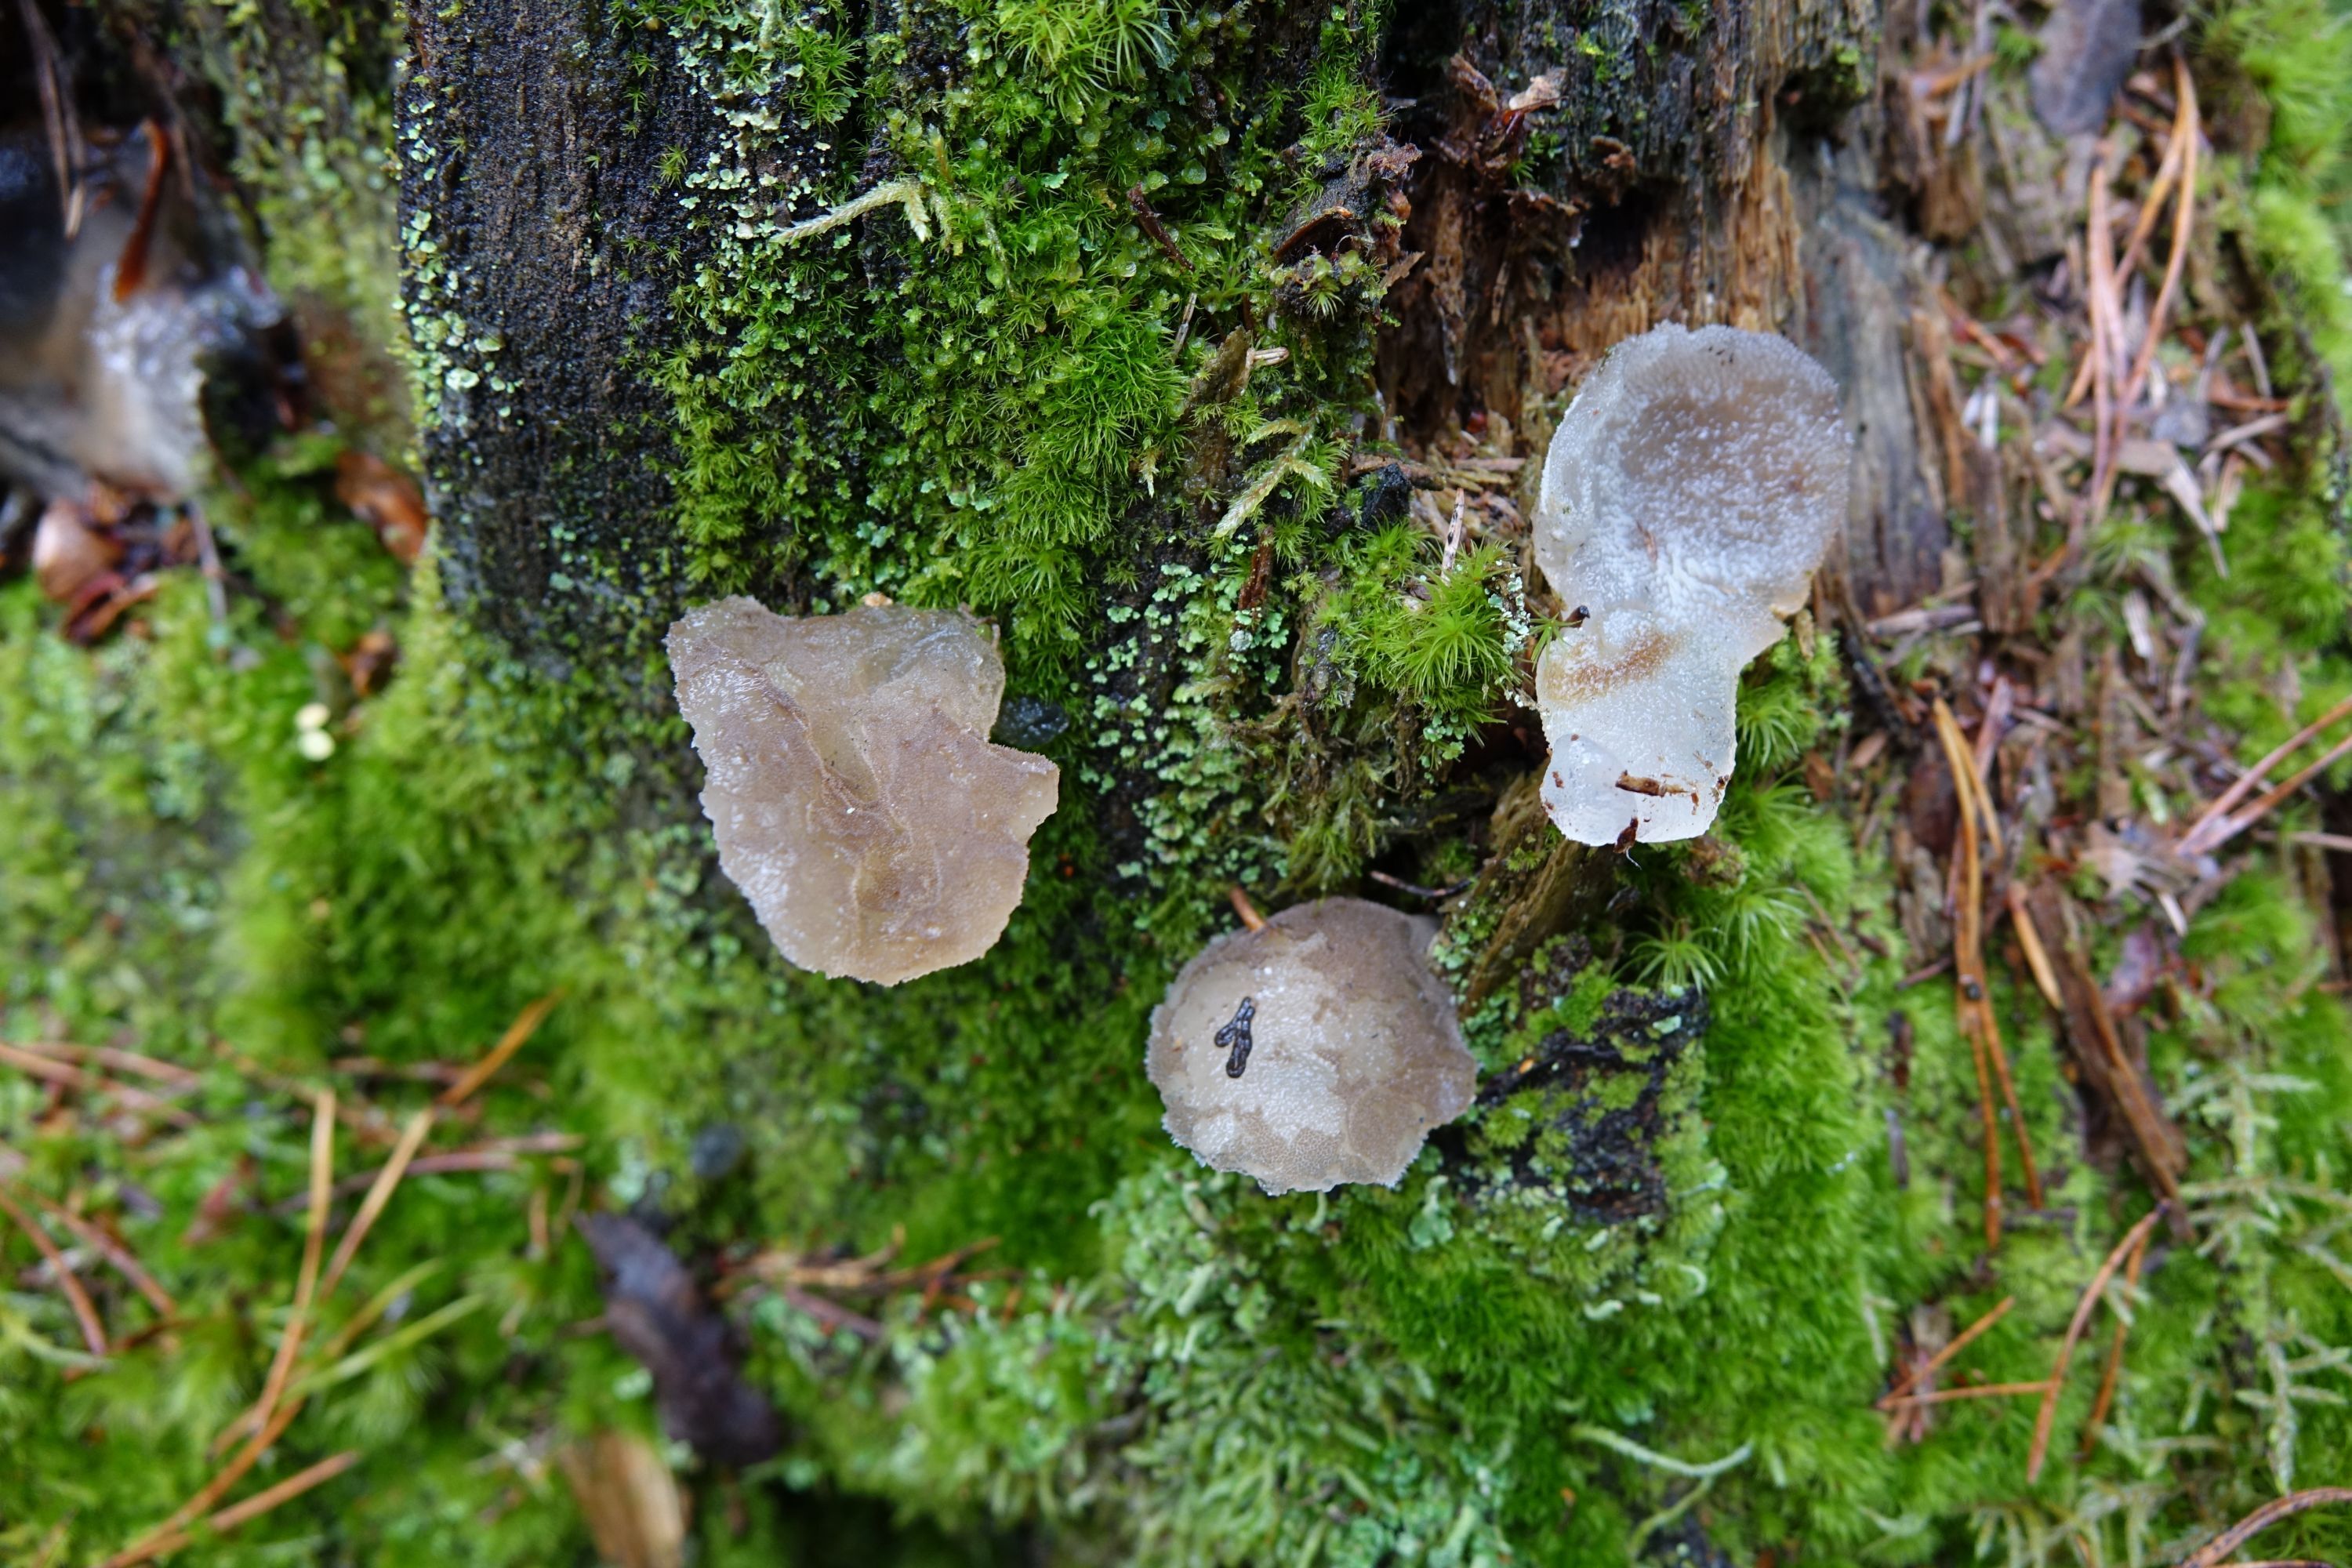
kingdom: Fungi
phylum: Basidiomycota
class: Agaricomycetes
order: Auriculariales
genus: Pseudohydnum
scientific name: Pseudohydnum gelatinosum
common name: Jelly tongue
